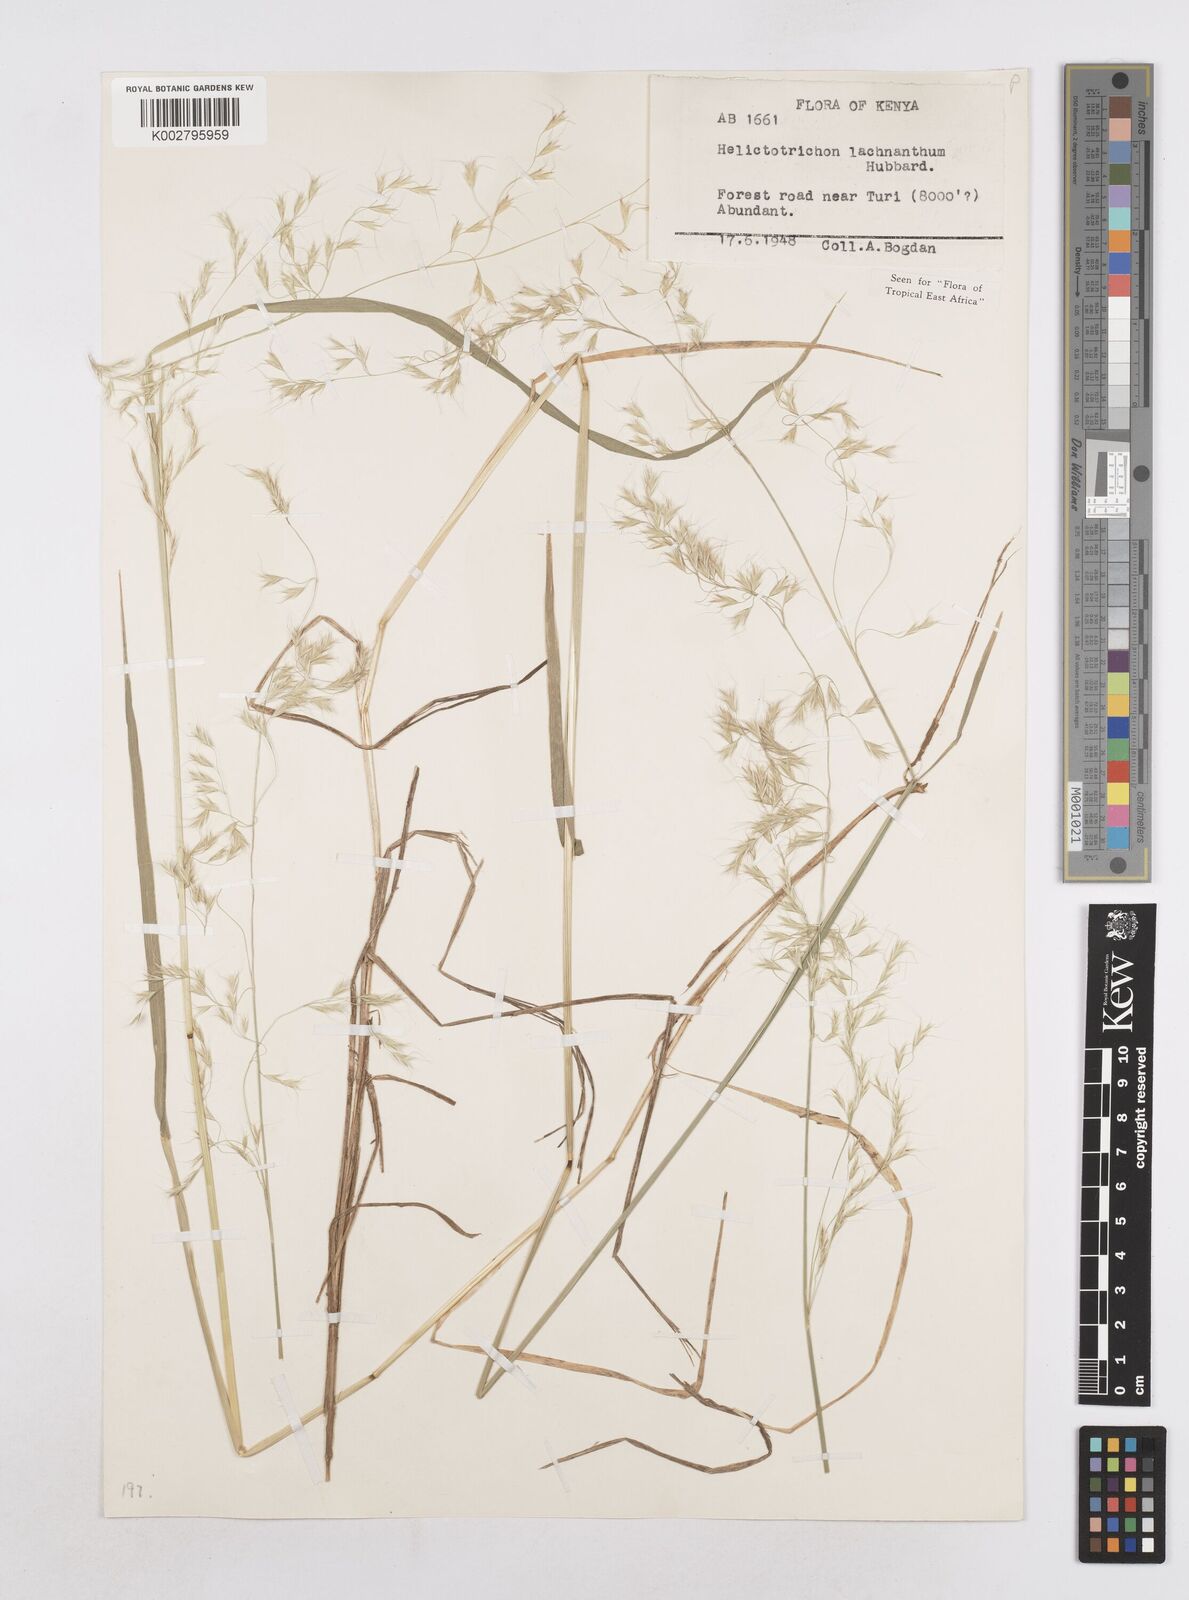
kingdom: Plantae
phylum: Tracheophyta
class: Liliopsida
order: Poales
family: Poaceae
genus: Trisetopsis
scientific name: Trisetopsis lachnantha
